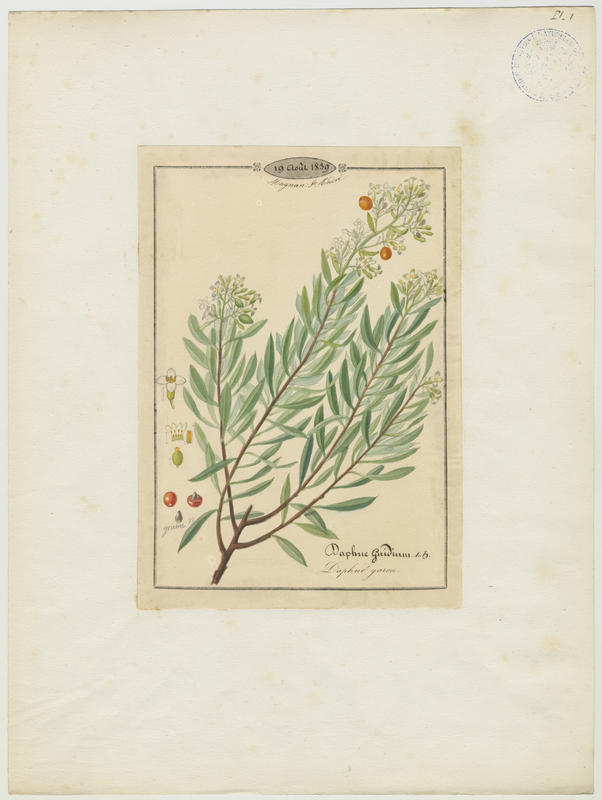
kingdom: Plantae
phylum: Tracheophyta
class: Magnoliopsida
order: Malvales
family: Thymelaeaceae
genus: Daphne
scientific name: Daphne gnidium
